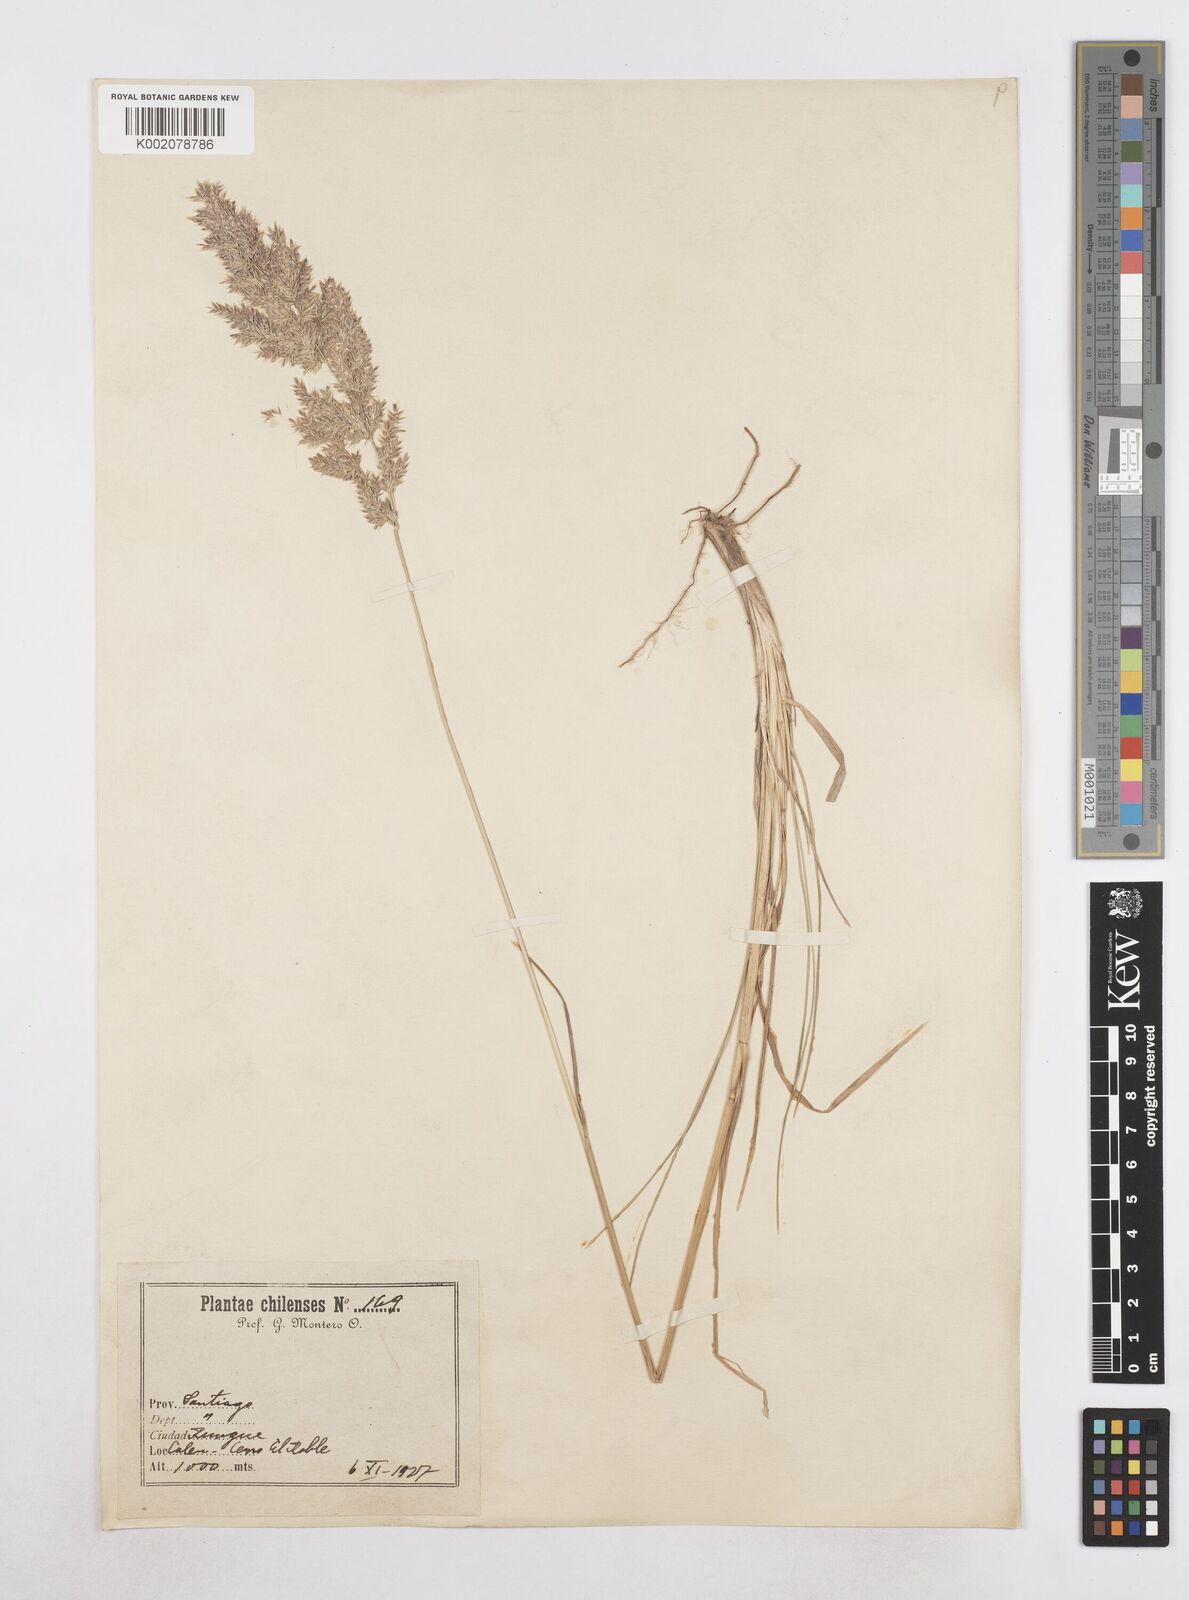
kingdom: Plantae
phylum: Tracheophyta
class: Liliopsida
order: Poales
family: Poaceae
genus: Poa
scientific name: Poa
